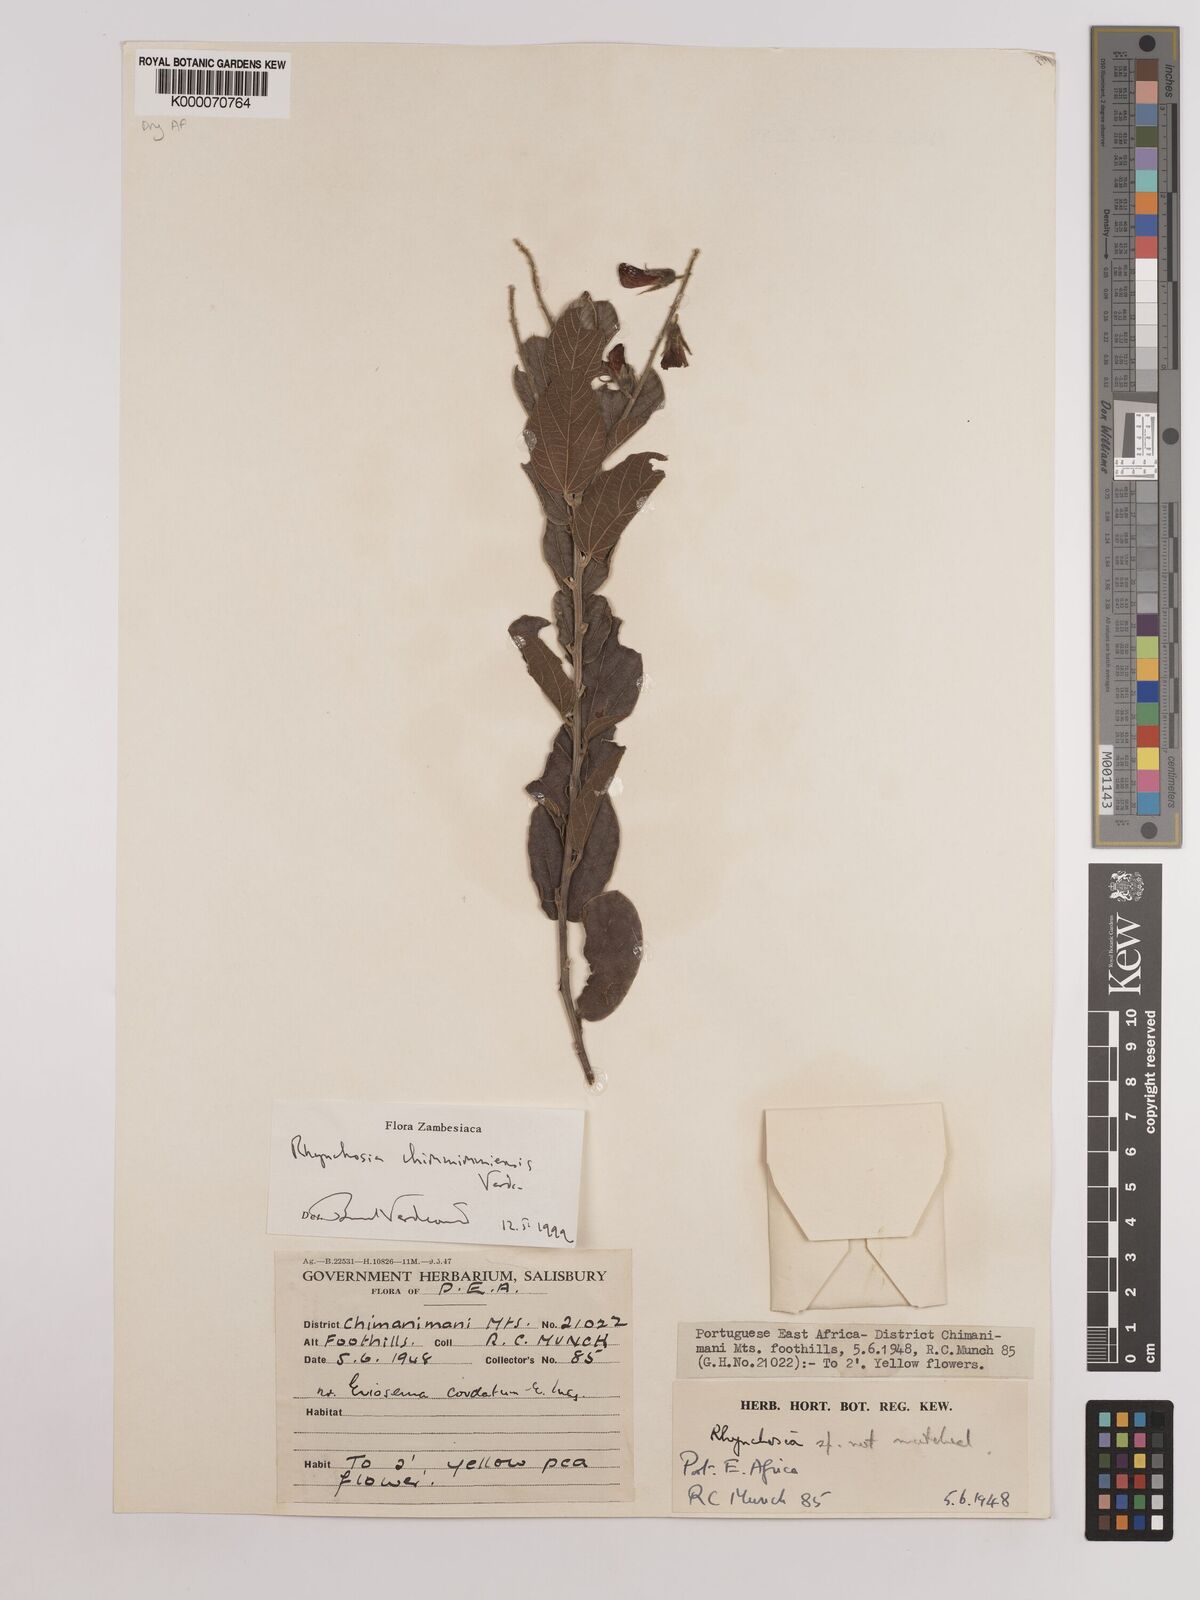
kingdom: Plantae
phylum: Tracheophyta
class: Magnoliopsida
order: Fabales
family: Fabaceae
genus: Rhynchosia
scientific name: Rhynchosia chimanimaniensis
